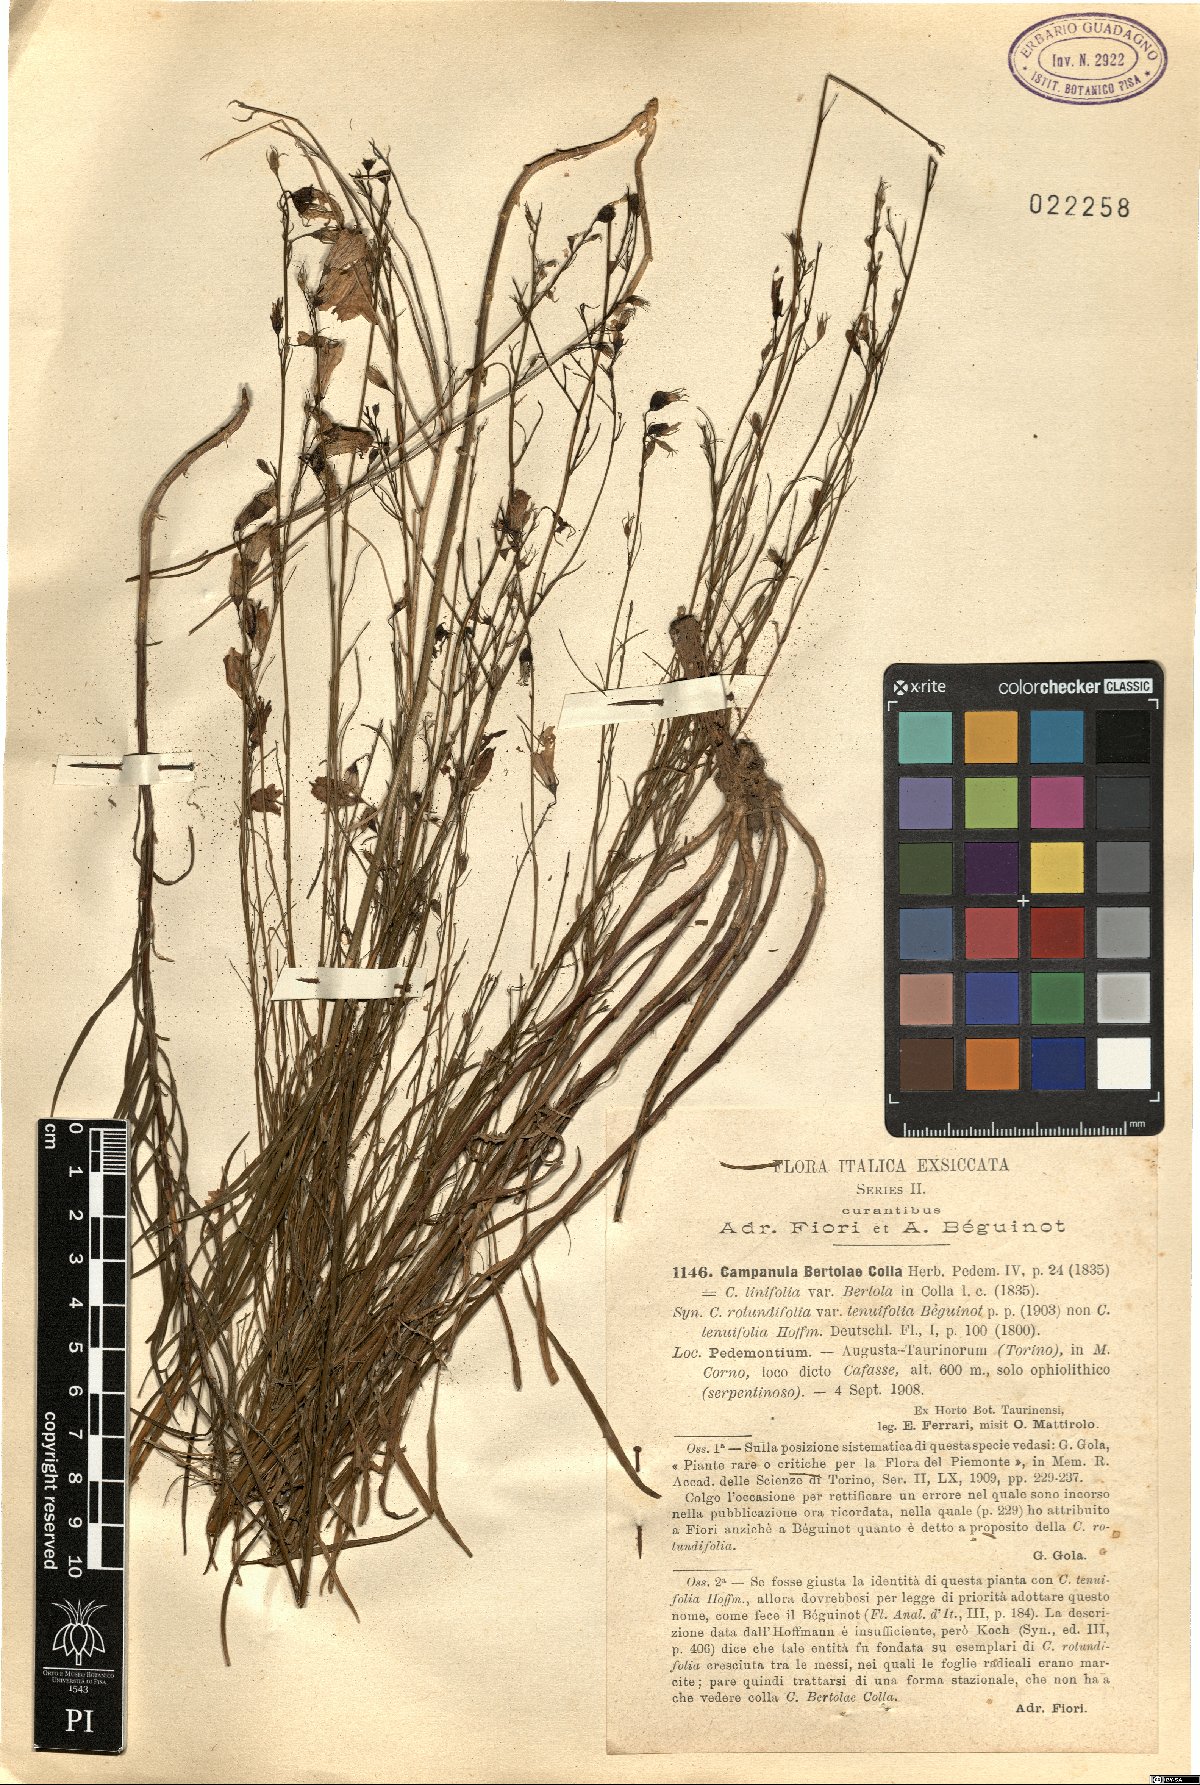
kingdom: Plantae
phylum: Tracheophyta
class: Magnoliopsida
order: Asterales
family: Campanulaceae
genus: Campanula
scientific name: Campanula bertolae
